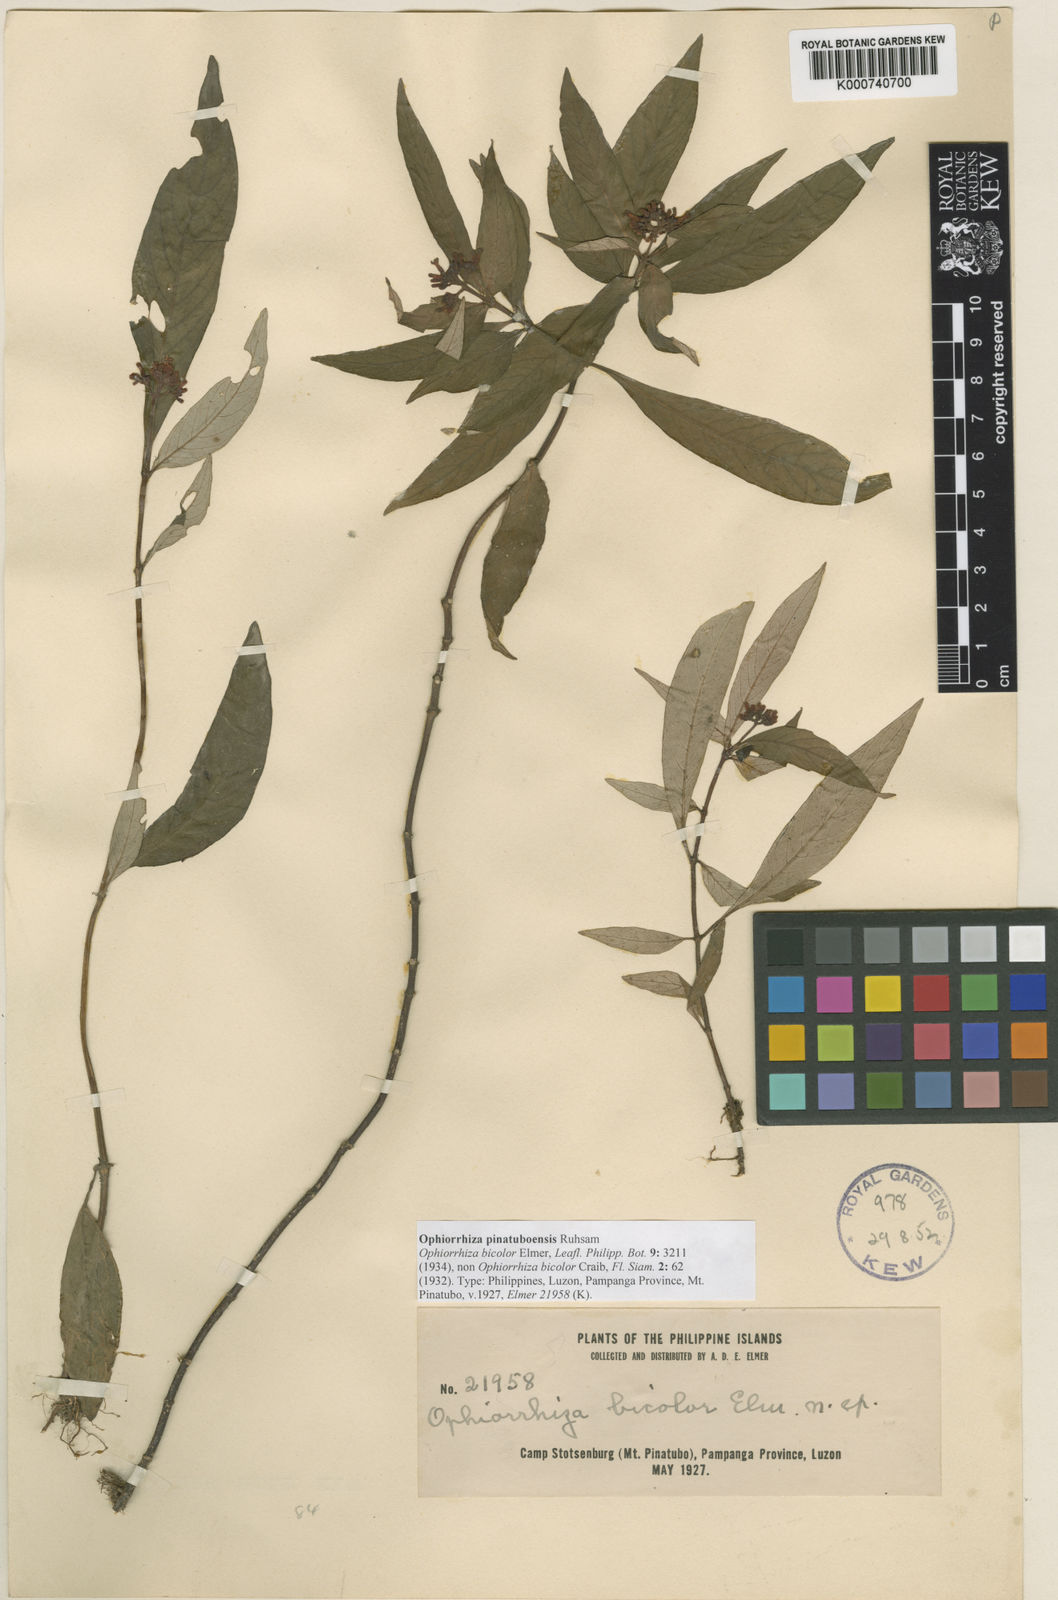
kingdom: Plantae
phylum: Tracheophyta
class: Magnoliopsida
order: Gentianales
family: Rubiaceae
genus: Ophiorrhiza
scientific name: Ophiorrhiza pinatuboensis
